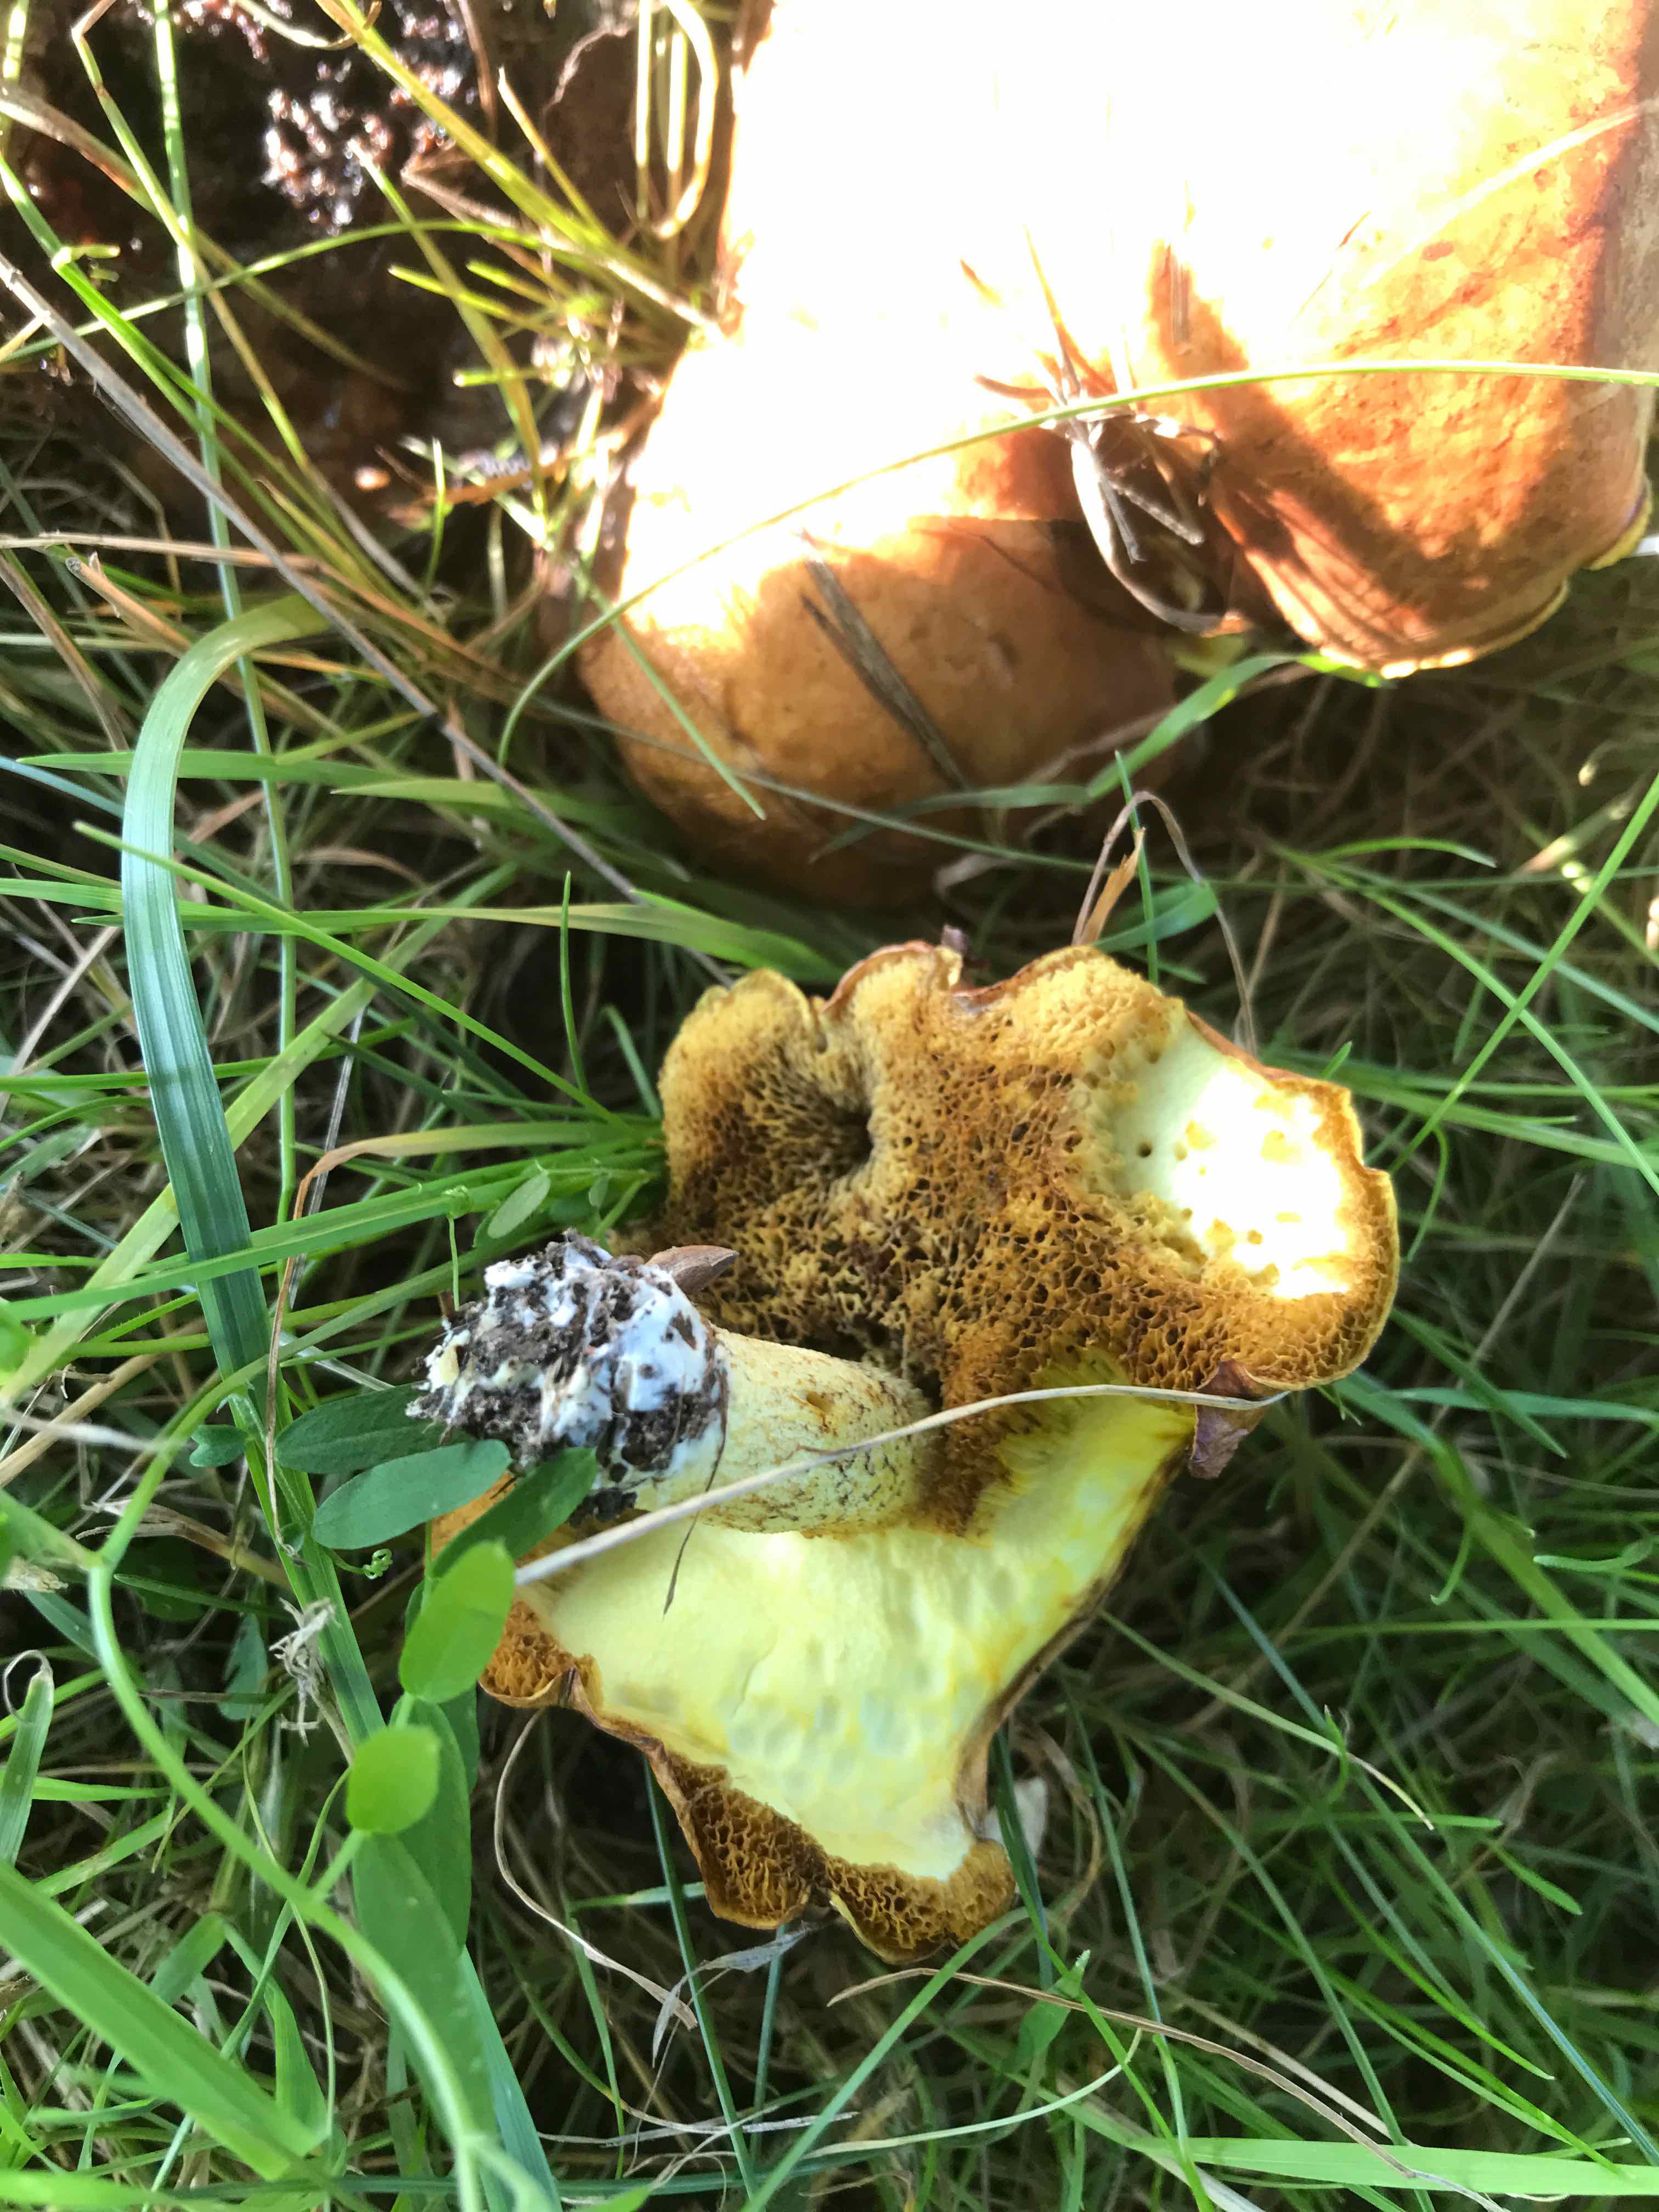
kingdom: Fungi
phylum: Basidiomycota
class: Agaricomycetes
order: Boletales
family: Suillaceae
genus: Suillus
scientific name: Suillus granulatus
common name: kornet slimrørhat
